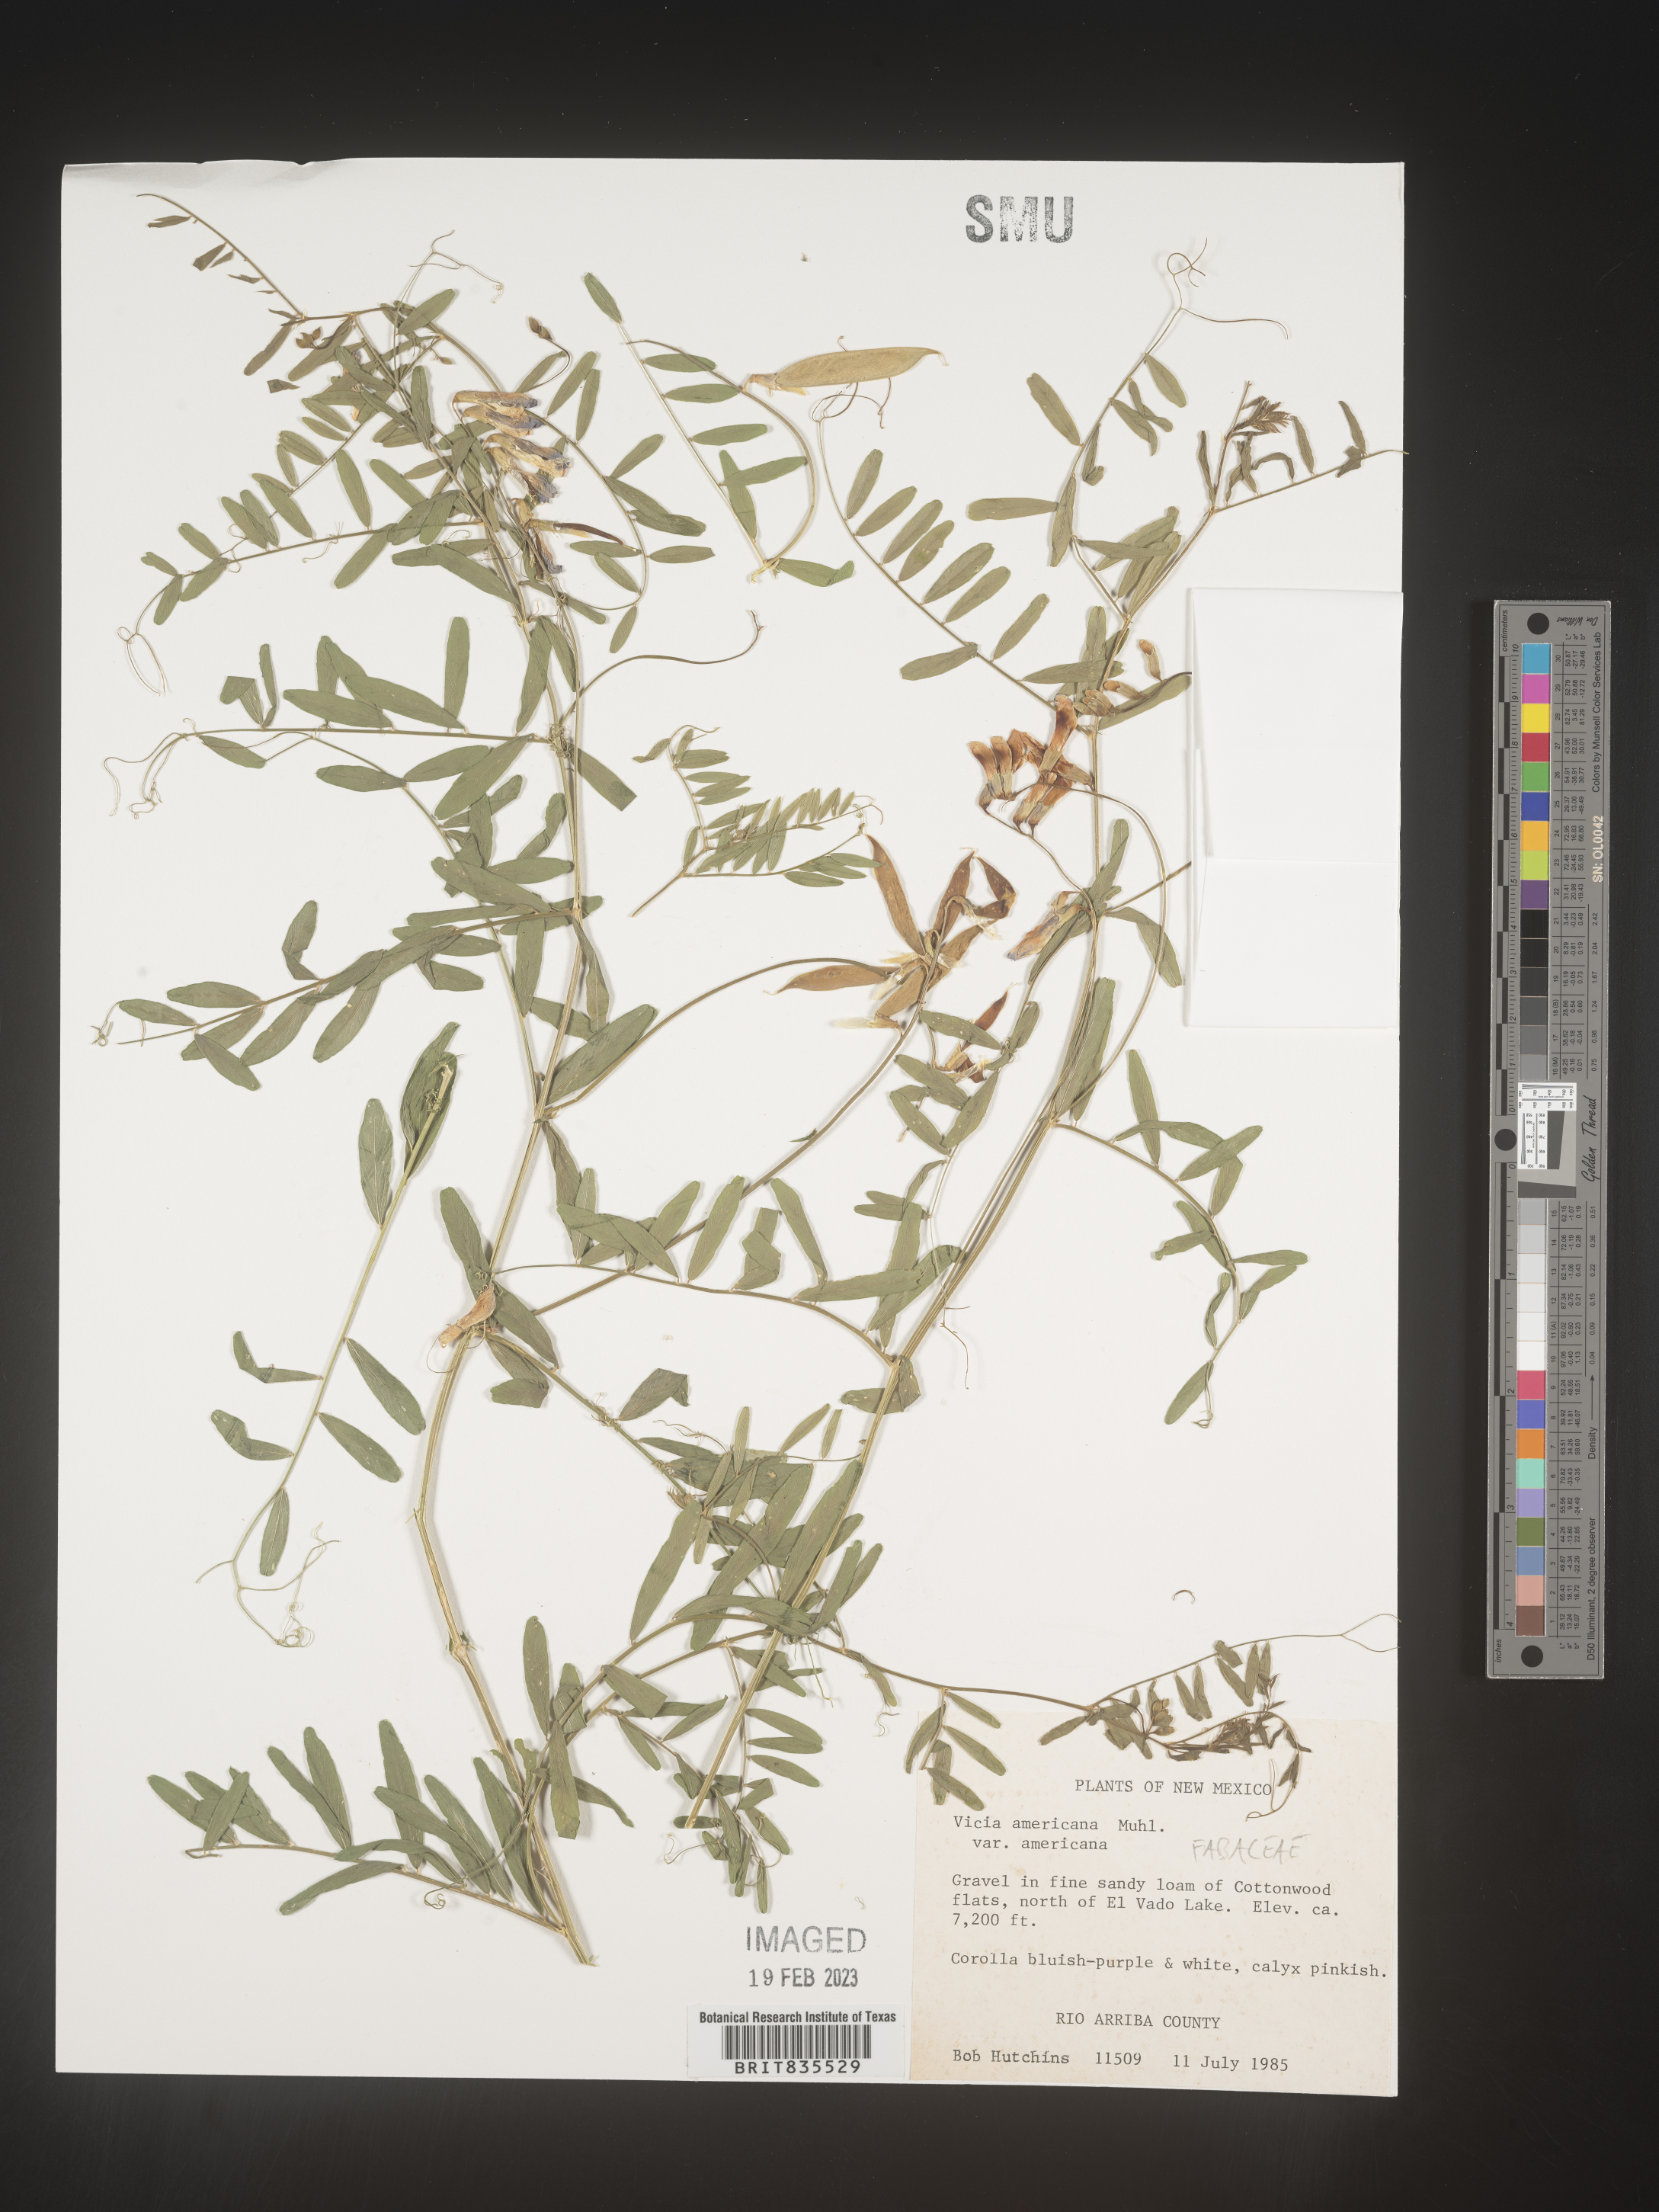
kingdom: Plantae
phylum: Tracheophyta
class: Magnoliopsida
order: Fabales
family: Fabaceae
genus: Vicia
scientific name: Vicia americana
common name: American vetch
